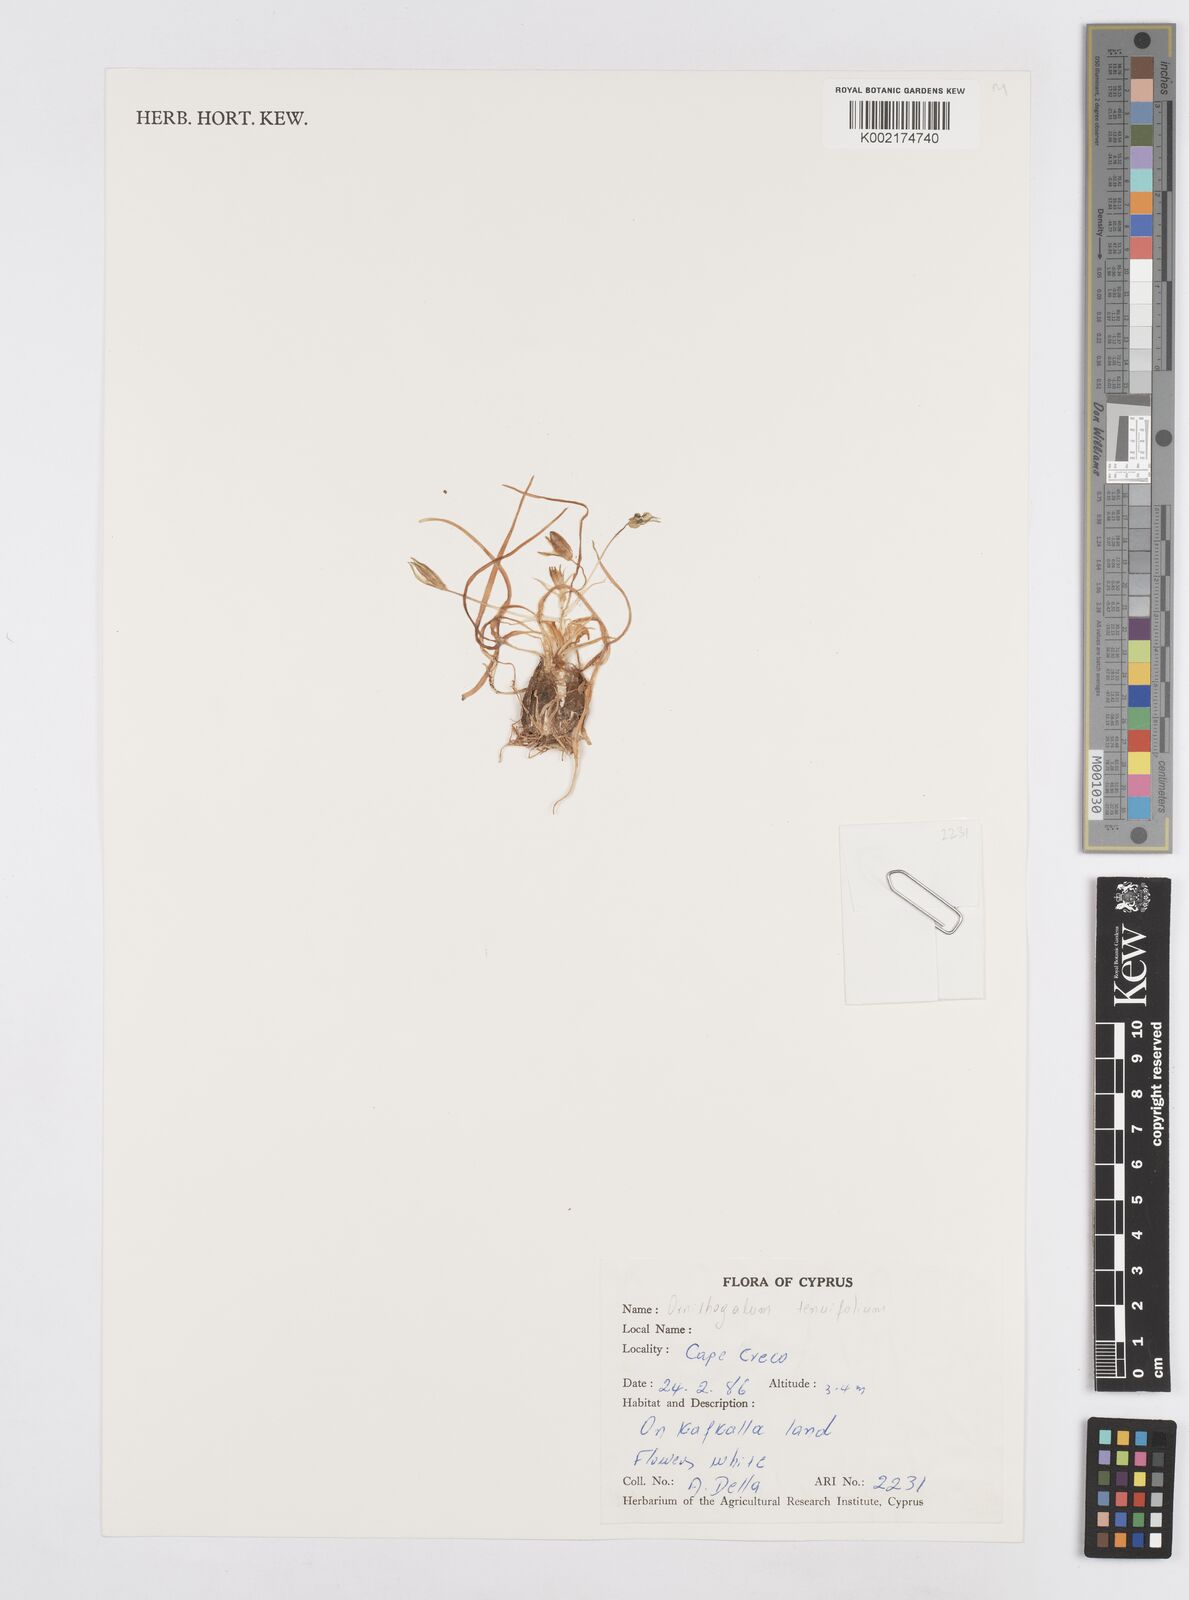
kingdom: Plantae
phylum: Tracheophyta
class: Liliopsida
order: Asparagales
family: Asparagaceae
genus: Ornithogalum
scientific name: Ornithogalum gussonei
